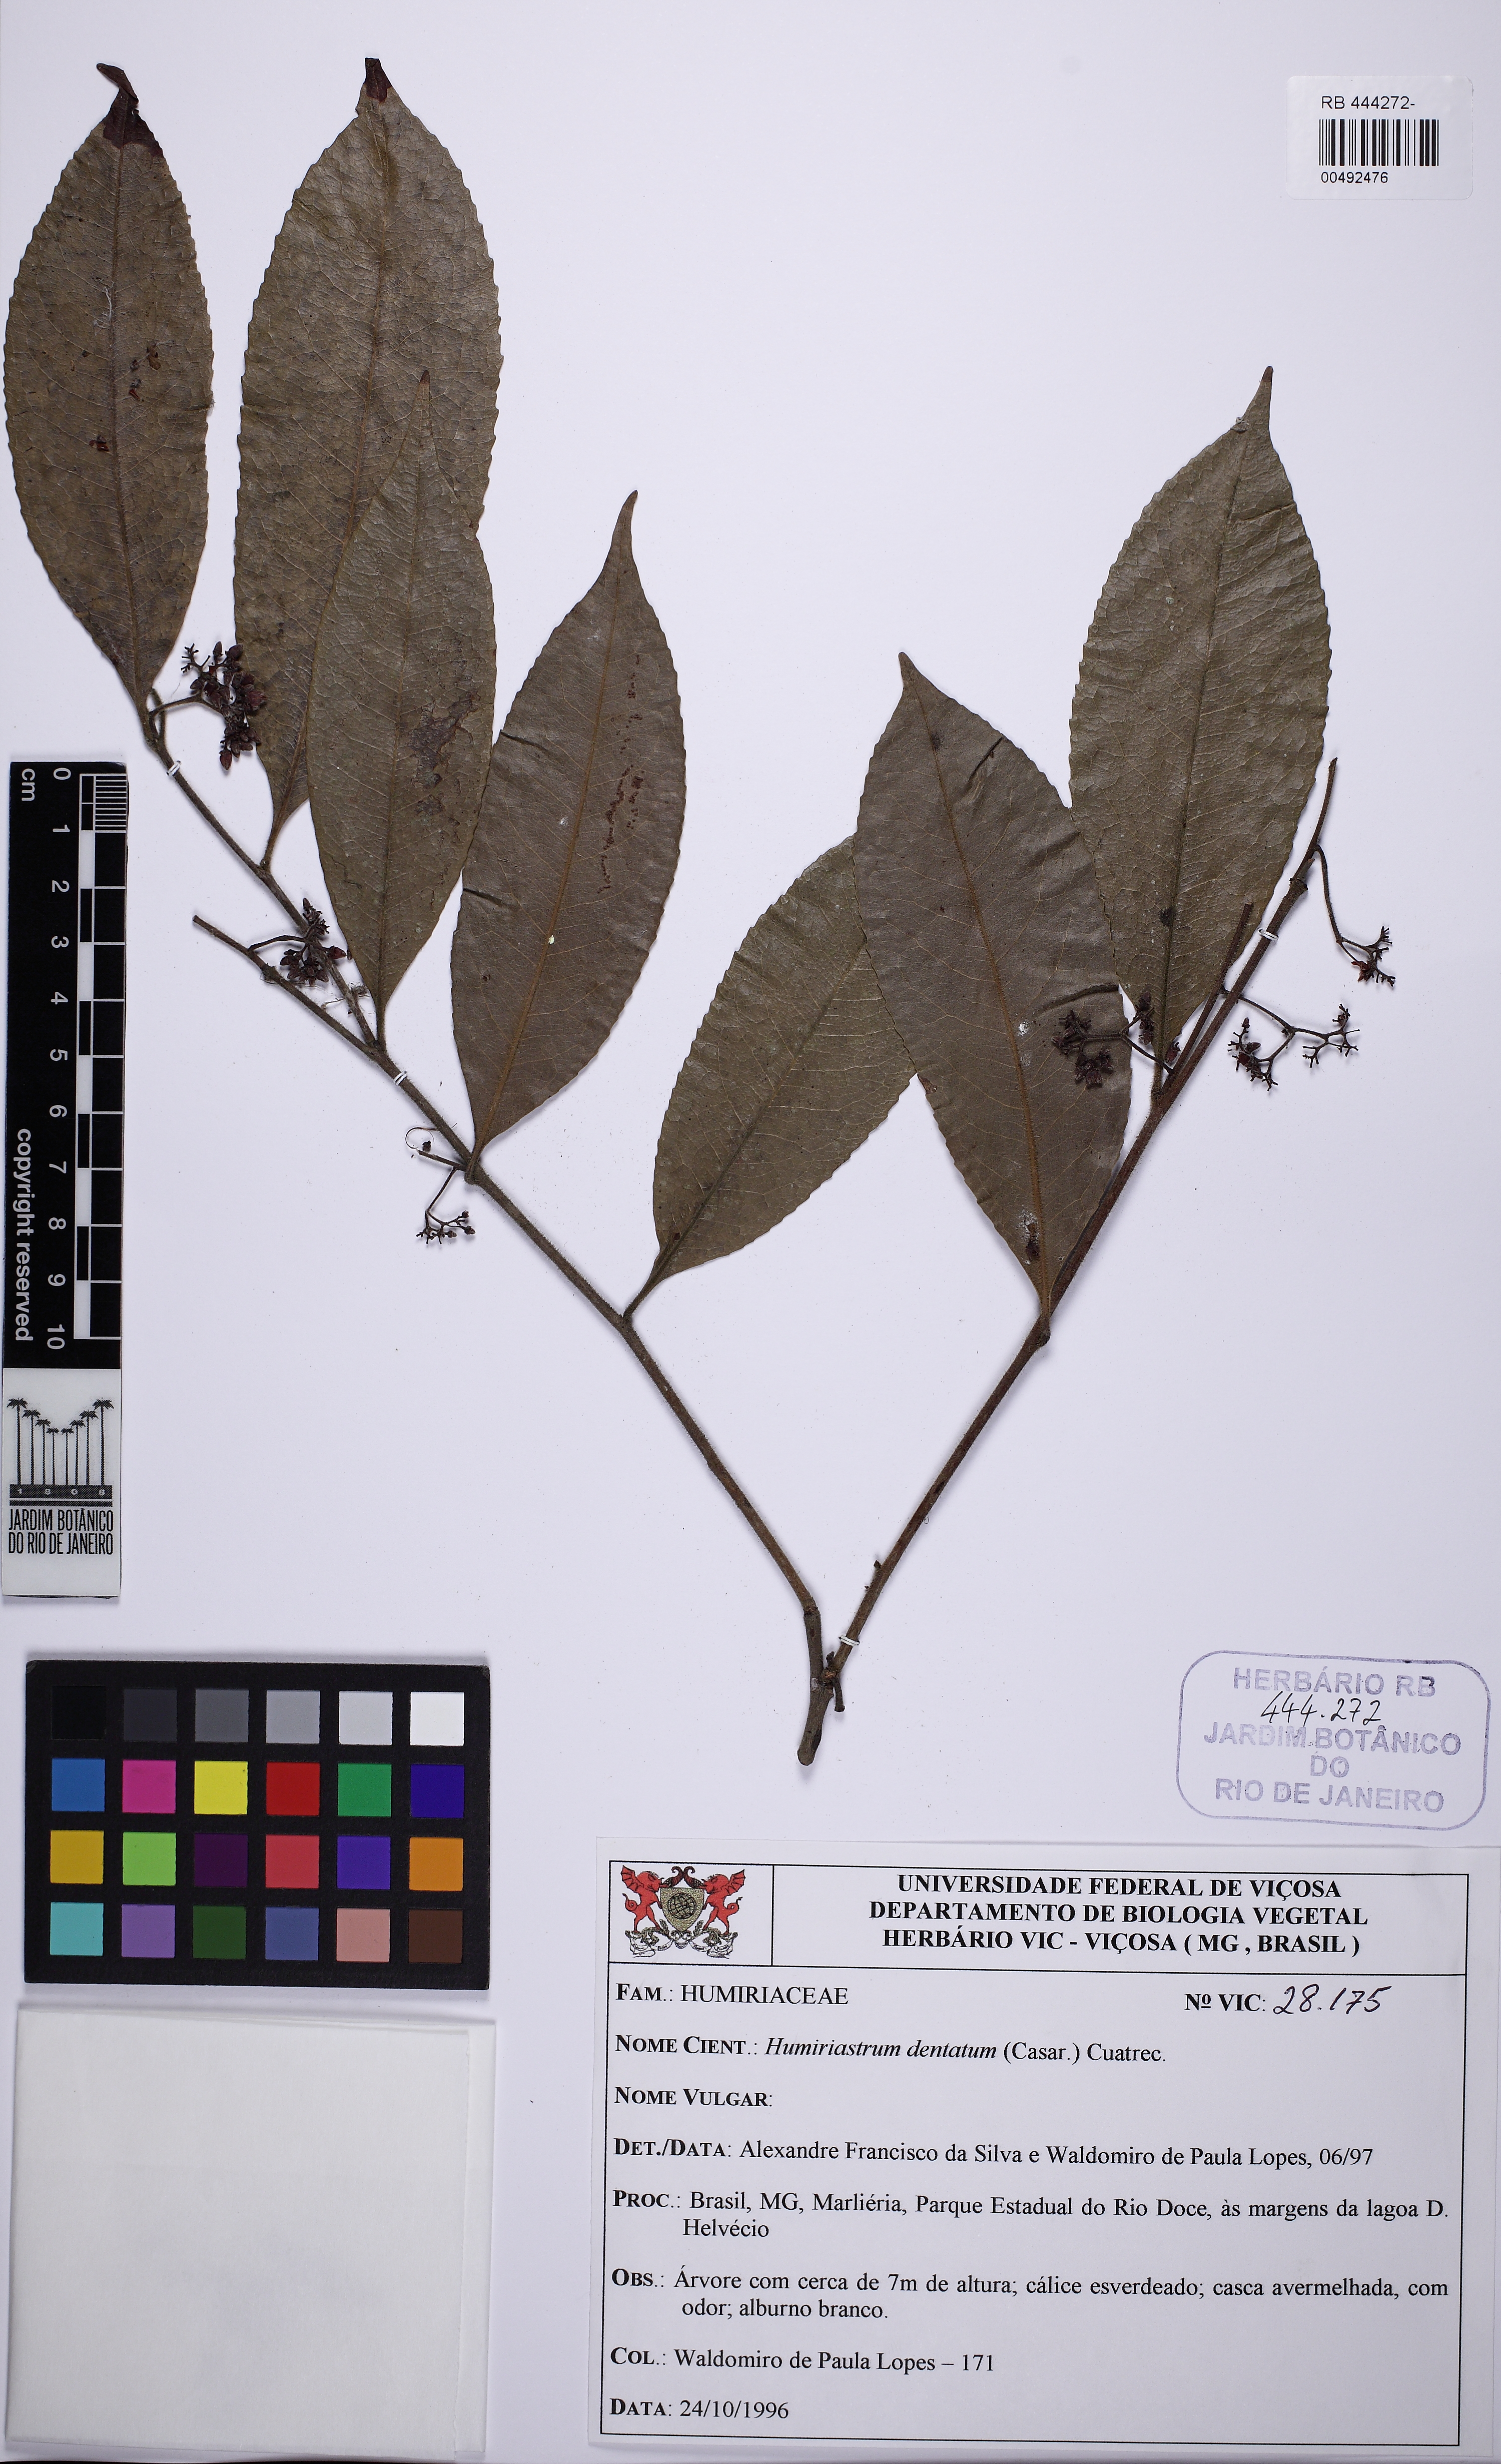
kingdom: Plantae
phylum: Tracheophyta
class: Magnoliopsida
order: Malpighiales
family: Humiriaceae
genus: Humiriastrum
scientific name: Humiriastrum dentatum
